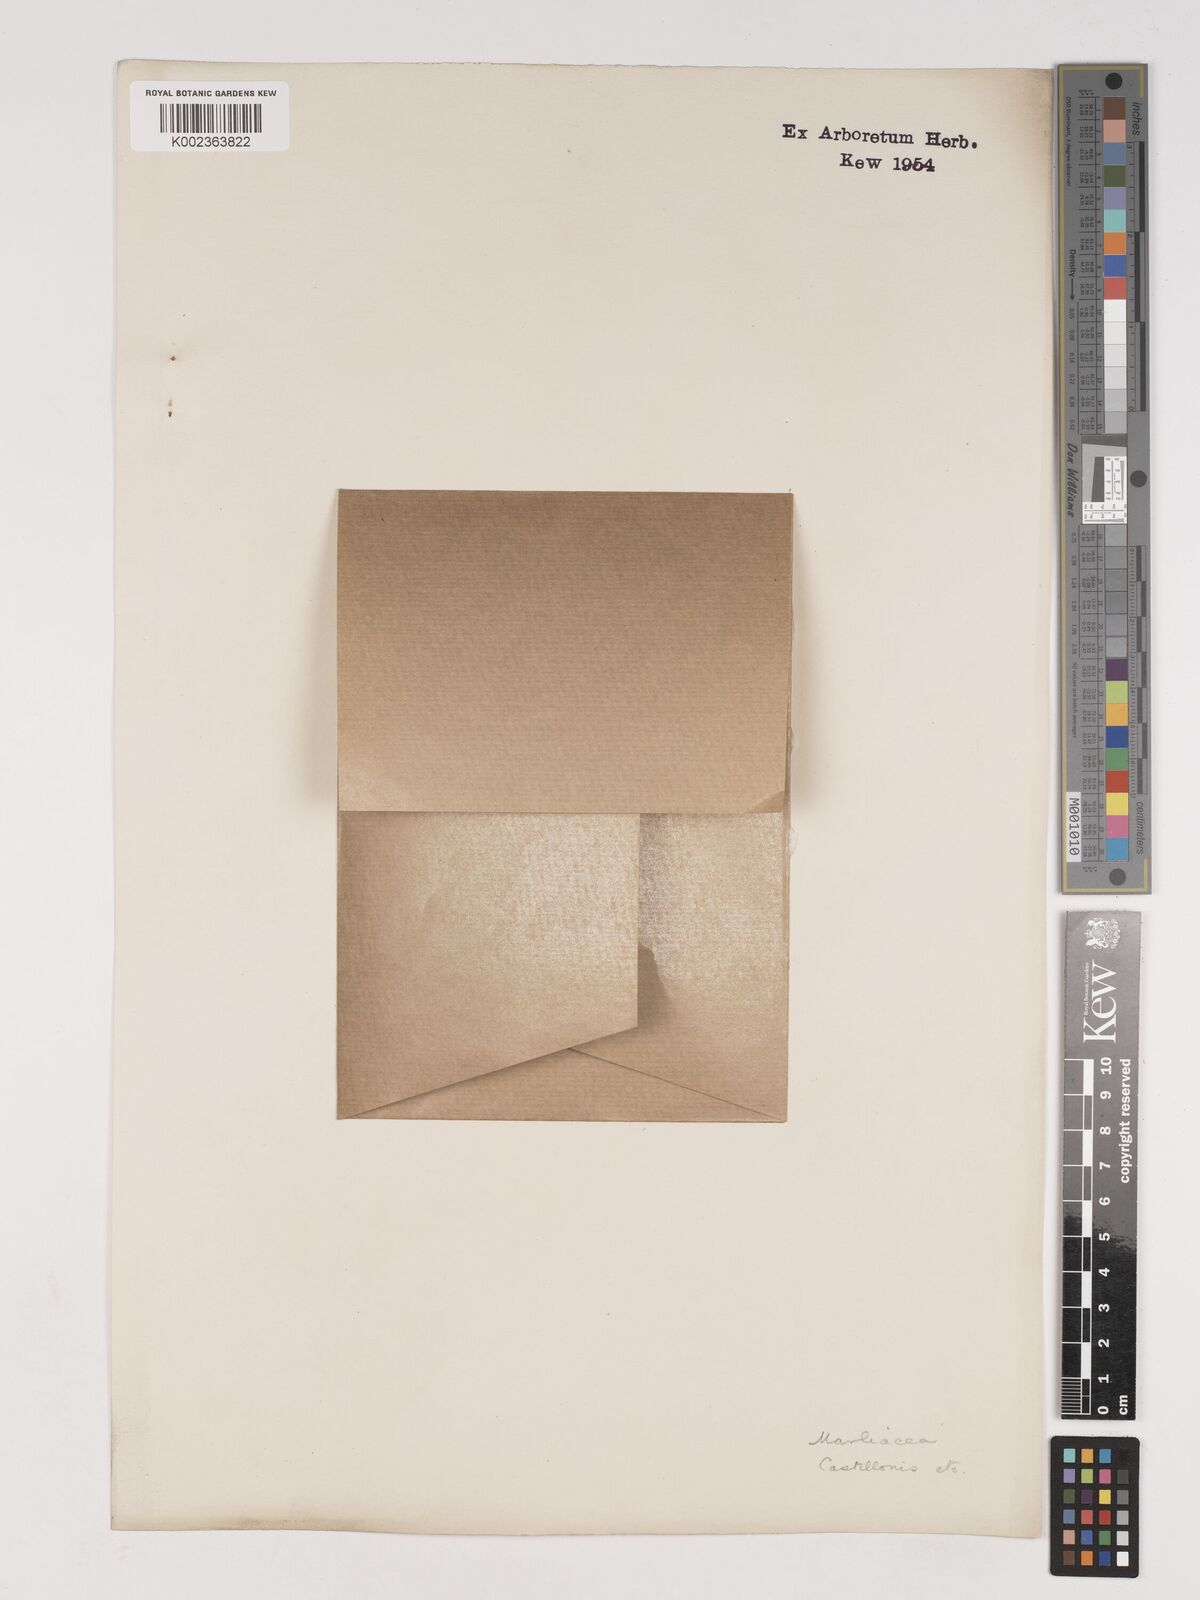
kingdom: Plantae
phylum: Tracheophyta
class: Liliopsida
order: Poales
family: Poaceae
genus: Phyllostachys
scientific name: Phyllostachys reticulata
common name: Bamboo
